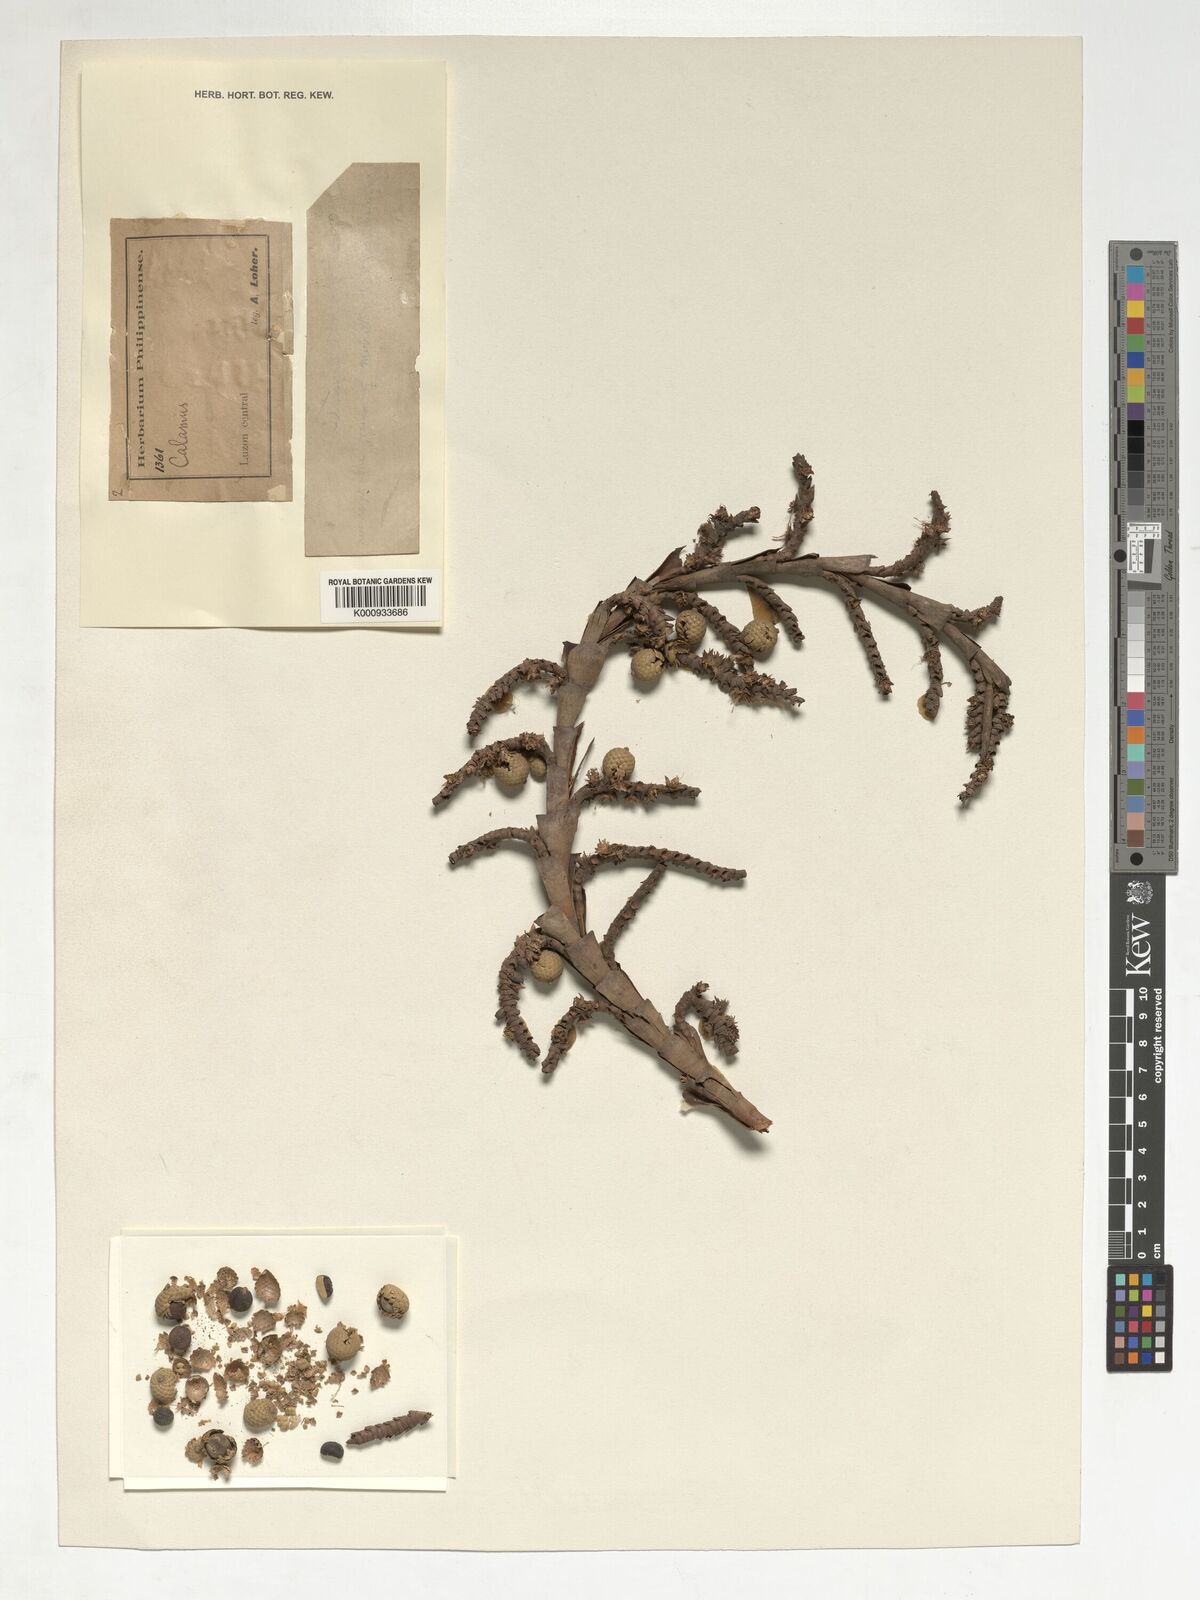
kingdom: Plantae
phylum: Tracheophyta
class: Liliopsida
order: Arecales
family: Arecaceae
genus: Calamus
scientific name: Calamus
